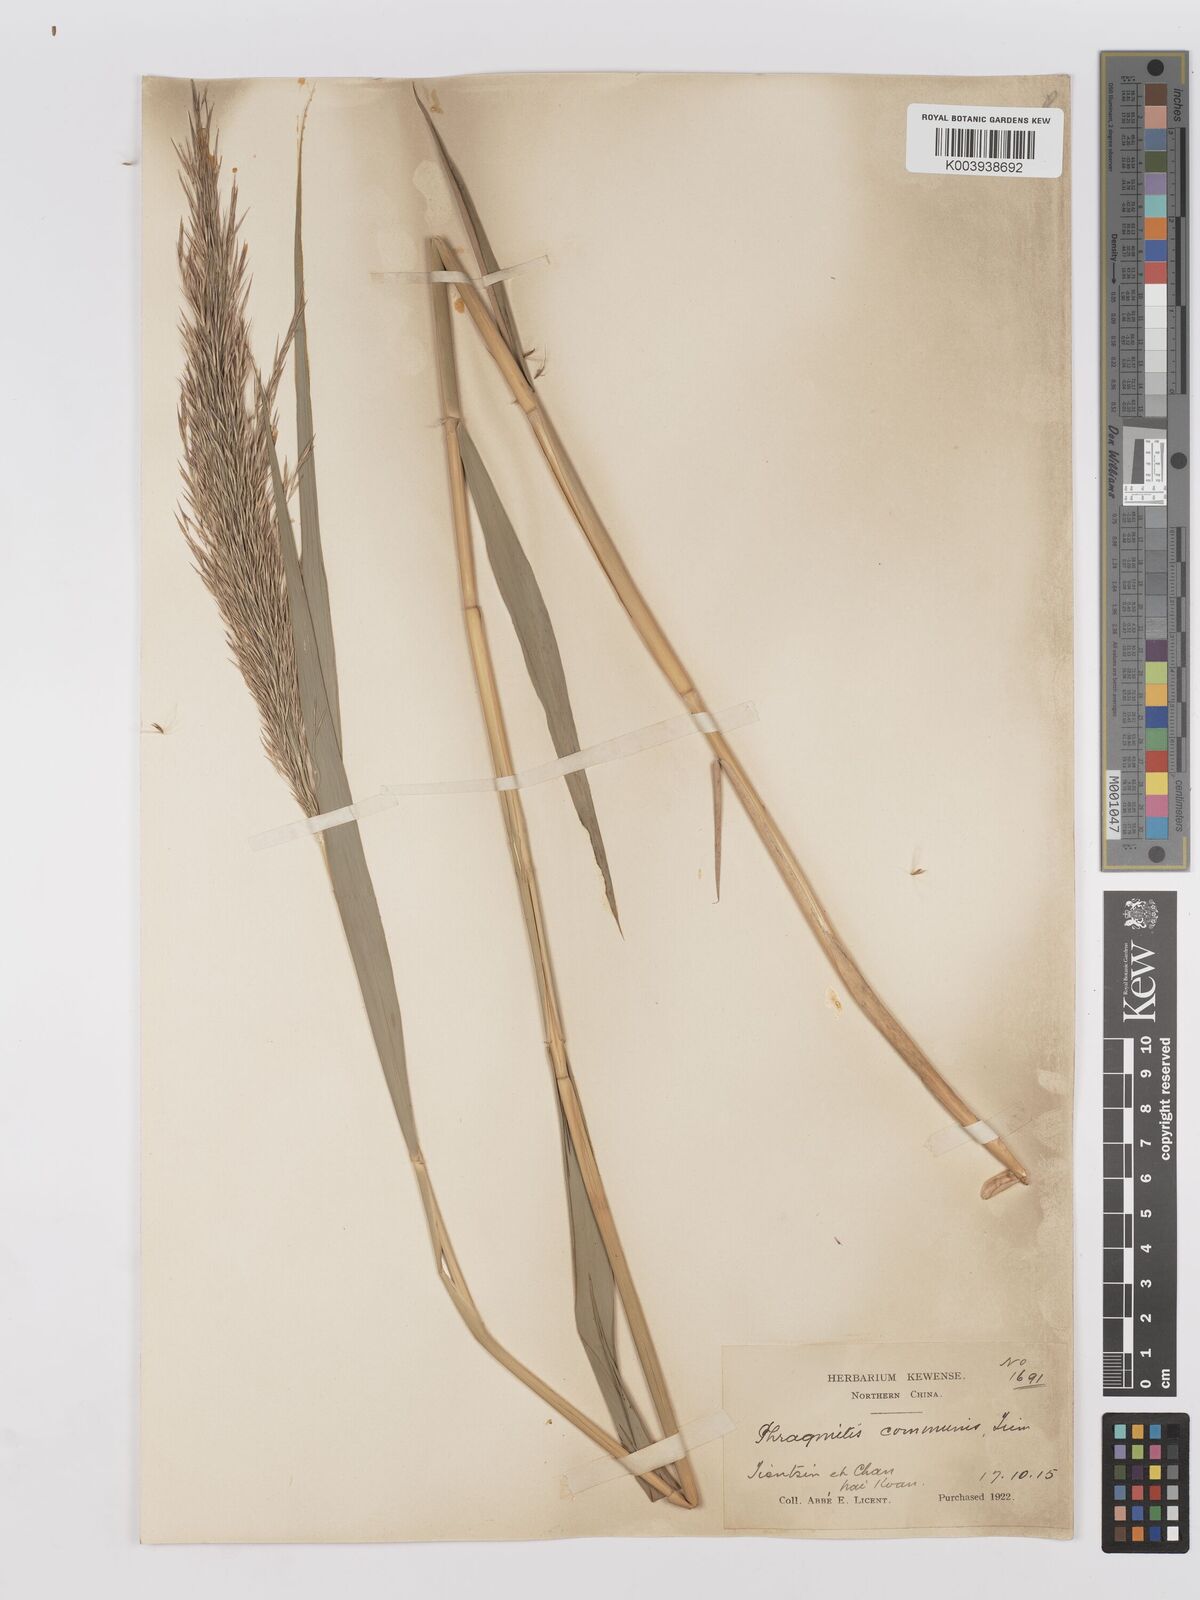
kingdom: Plantae
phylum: Tracheophyta
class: Liliopsida
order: Poales
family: Poaceae
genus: Phragmites
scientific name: Phragmites australis
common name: Common reed
